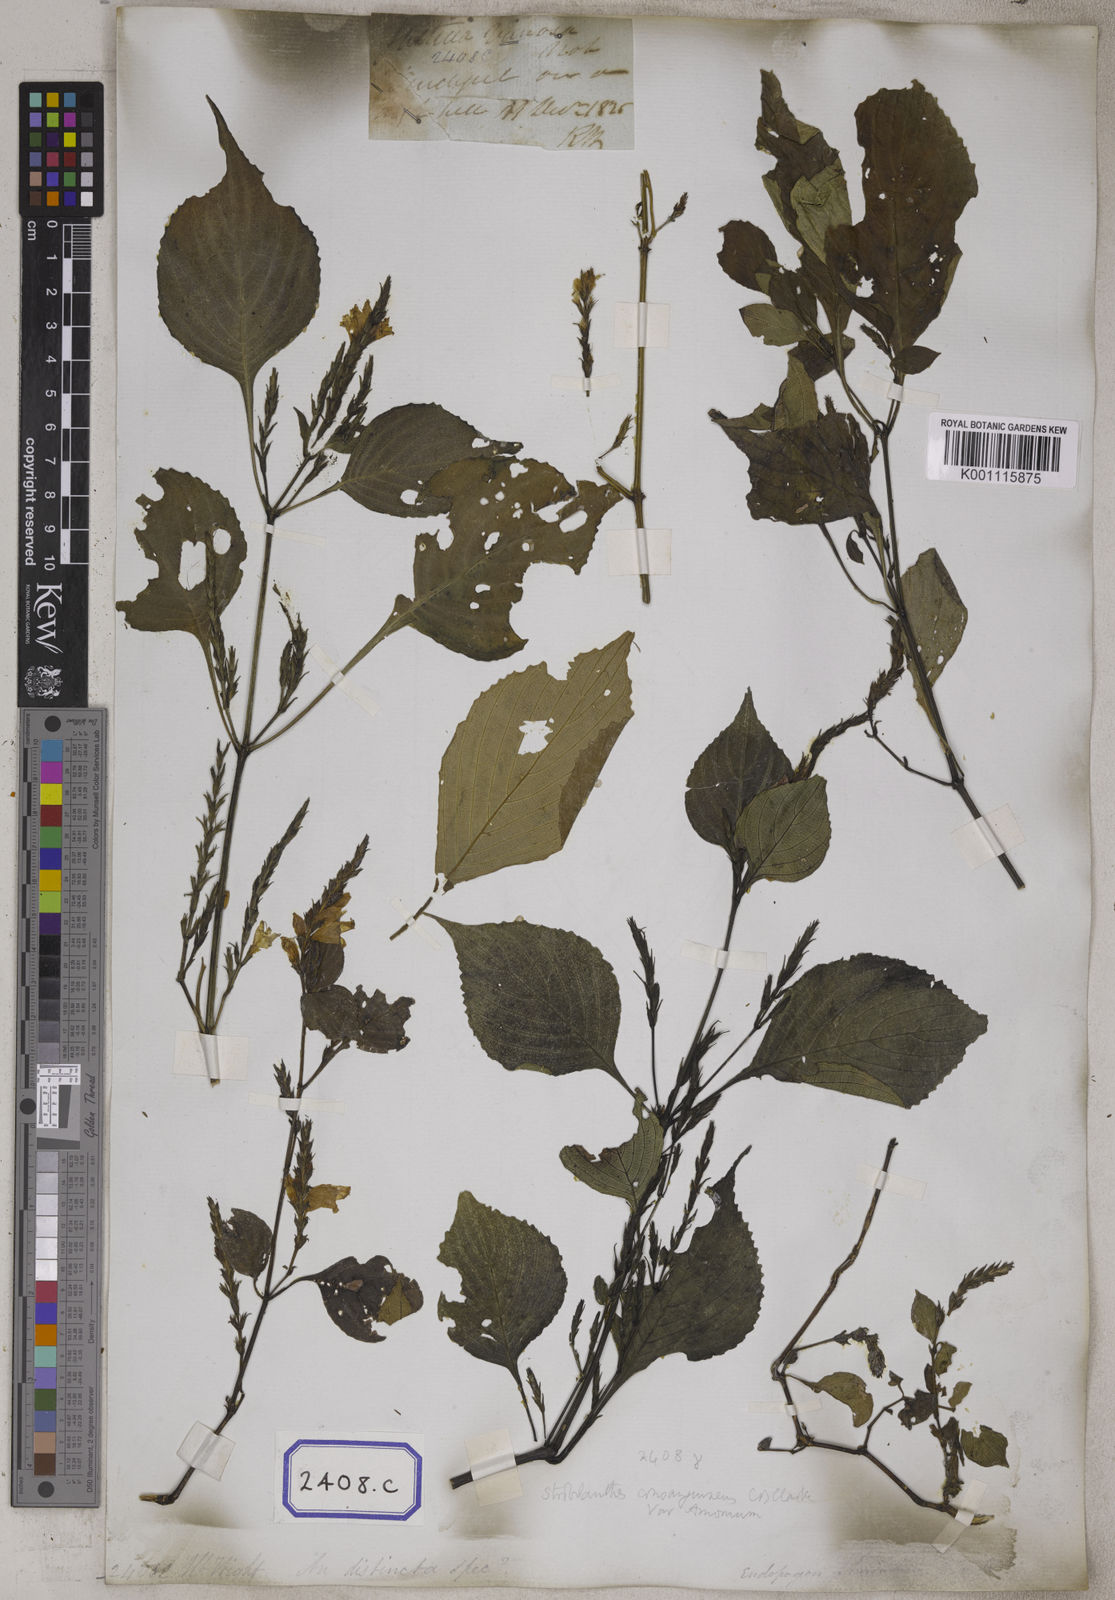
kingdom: Plantae
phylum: Tracheophyta
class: Magnoliopsida
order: Lamiales
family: Acanthaceae
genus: Strobilanthes
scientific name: Strobilanthes consanguinea
